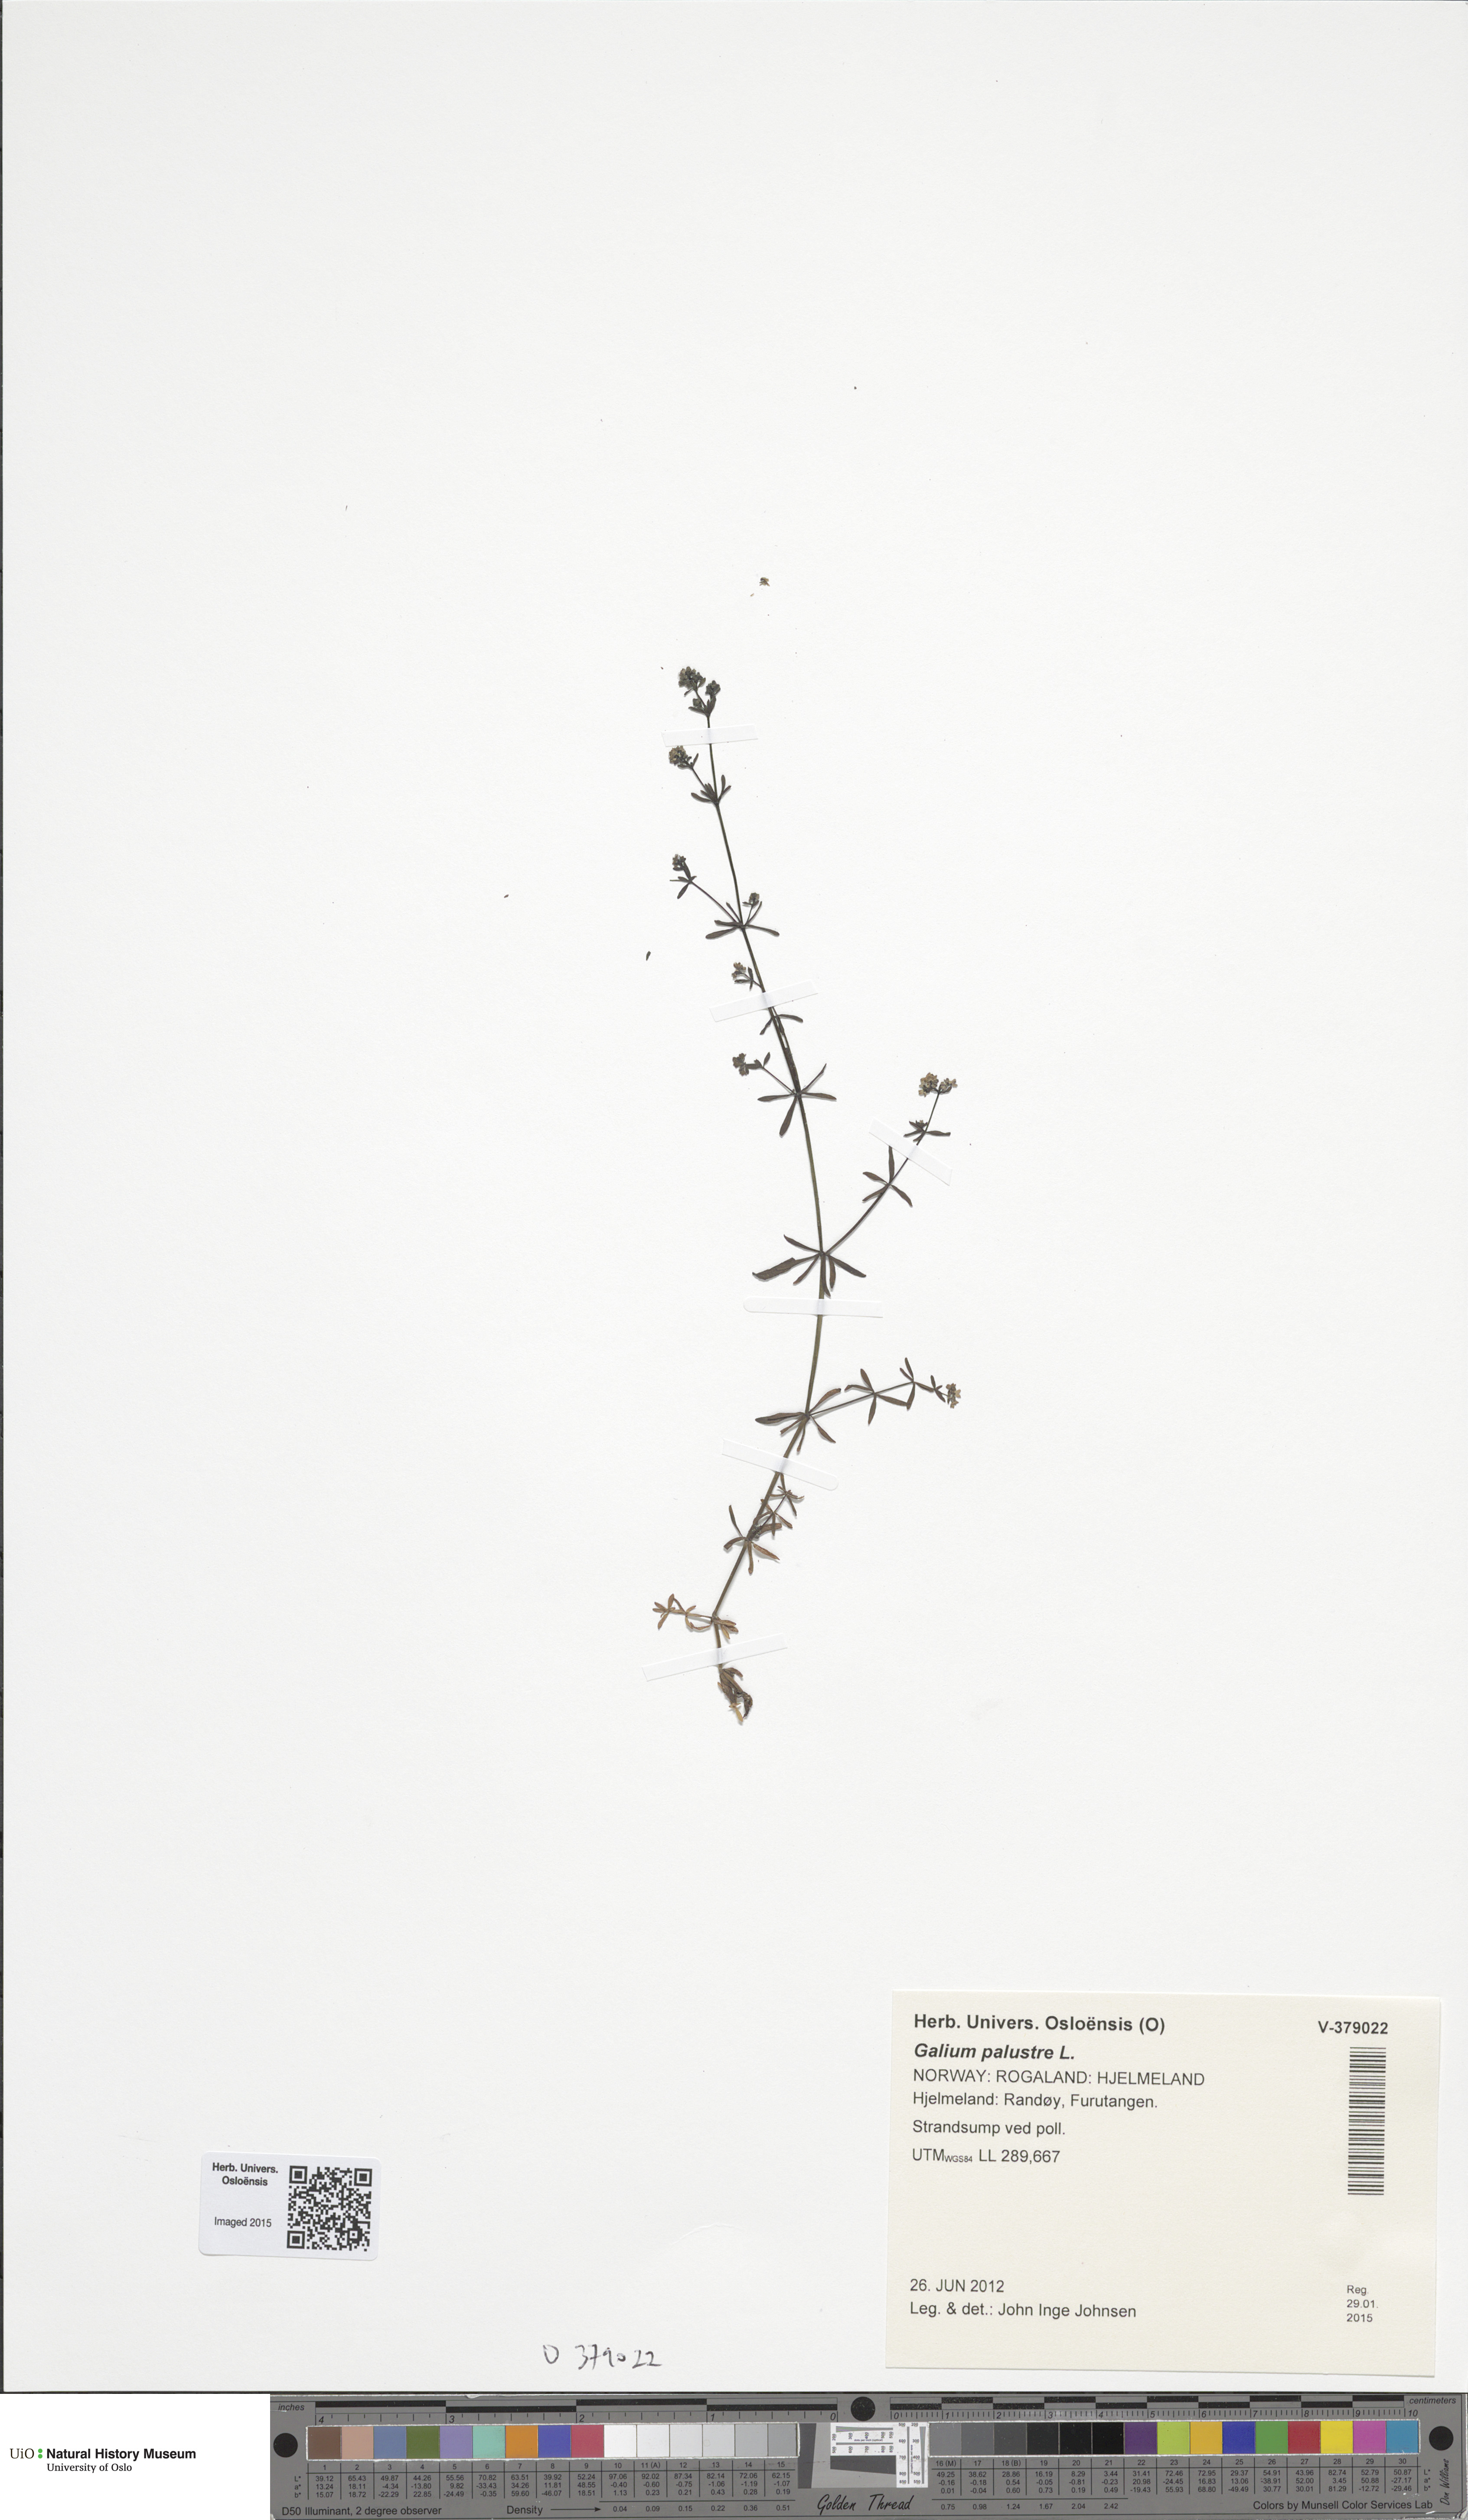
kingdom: Plantae
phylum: Tracheophyta
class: Magnoliopsida
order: Gentianales
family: Rubiaceae
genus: Galium
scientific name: Galium palustre
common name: Common marsh-bedstraw
